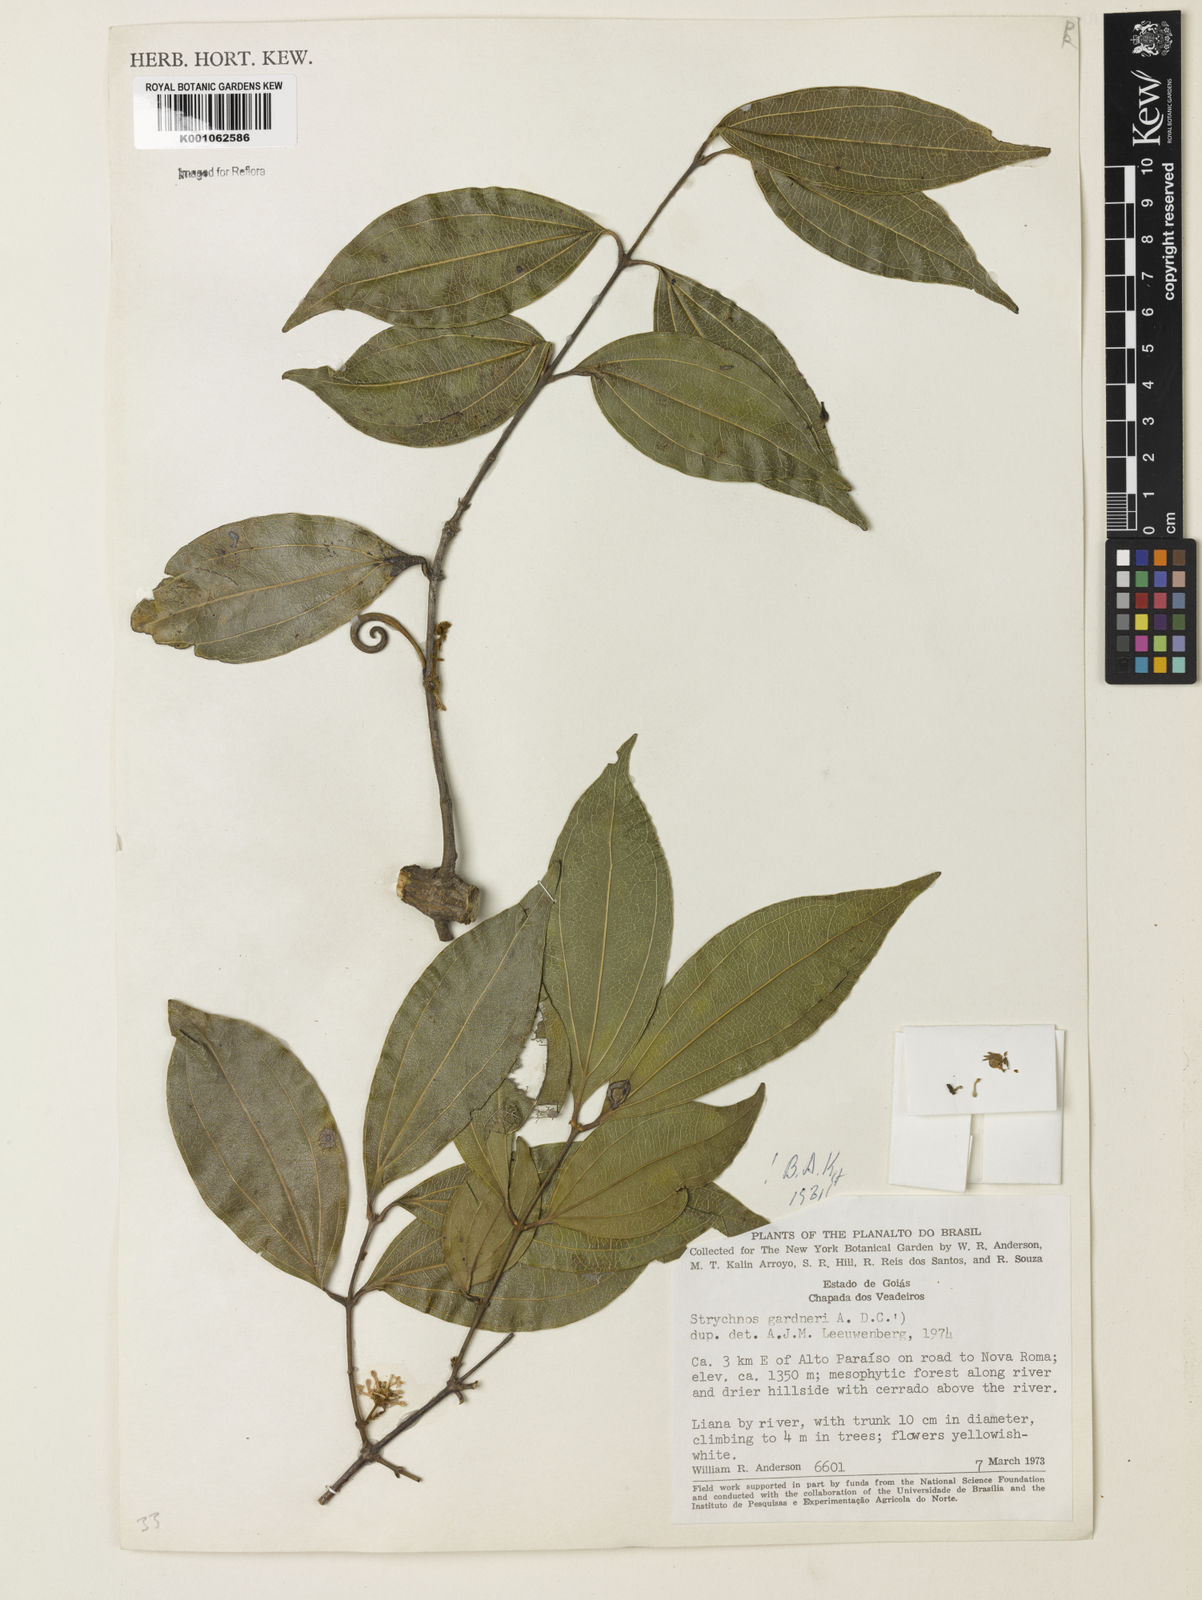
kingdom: Plantae
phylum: Tracheophyta
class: Magnoliopsida
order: Gentianales
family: Loganiaceae
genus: Strychnos
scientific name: Strychnos gardneri
